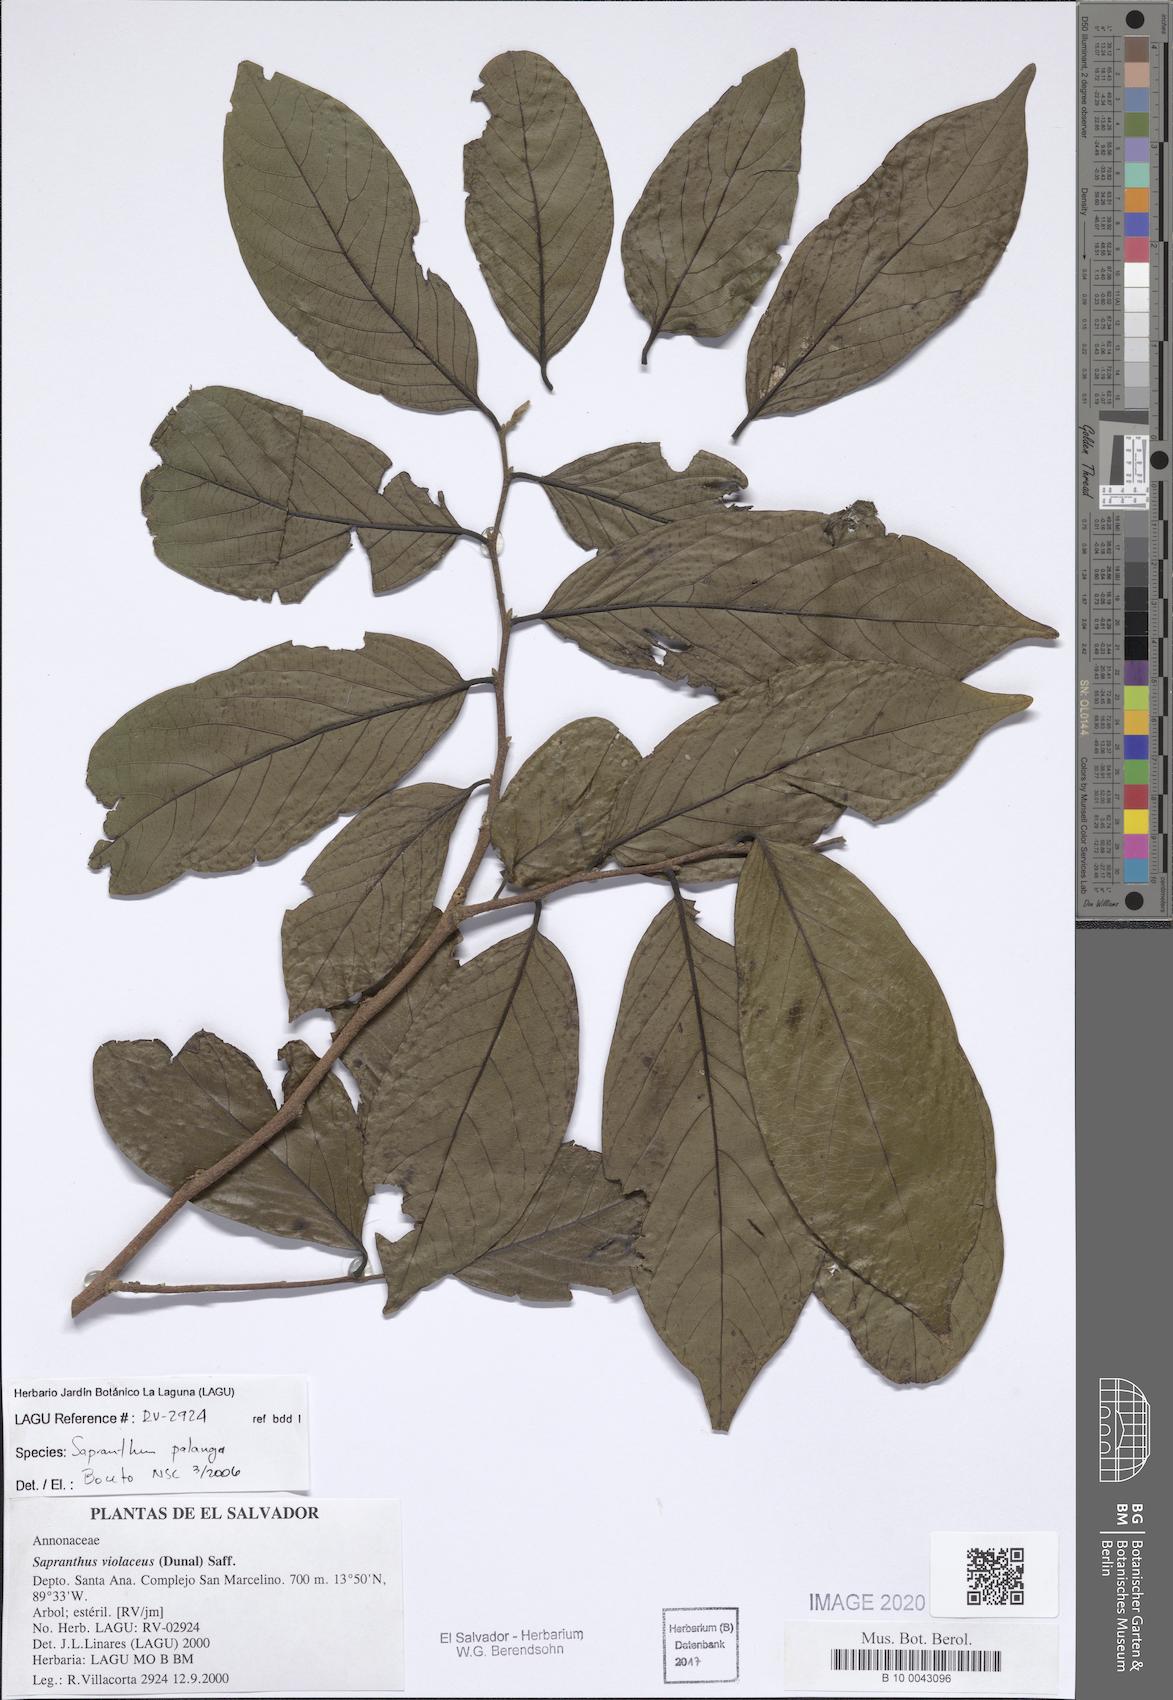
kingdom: Plantae
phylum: Tracheophyta
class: Magnoliopsida
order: Magnoliales
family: Annonaceae
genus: Sapranthus
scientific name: Sapranthus palanga
